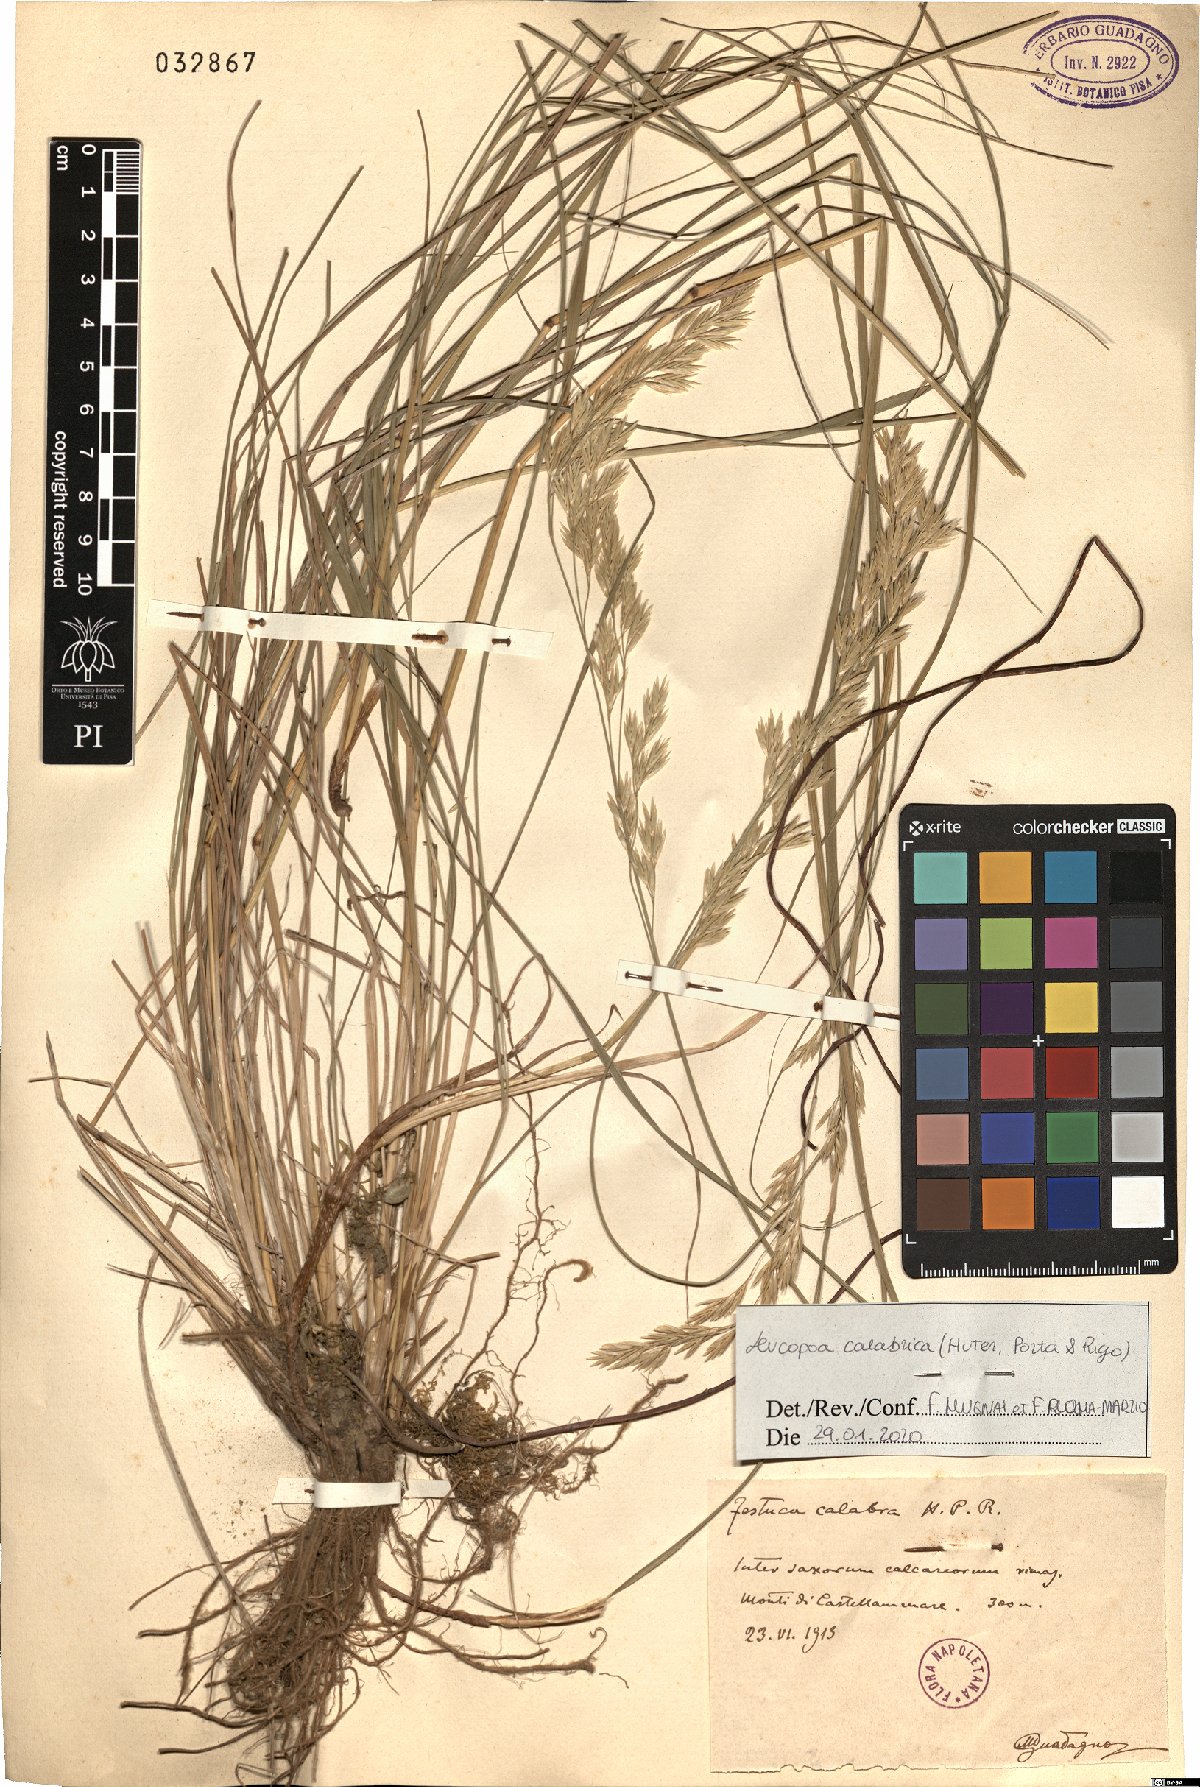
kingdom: Plantae
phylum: Tracheophyta
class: Liliopsida
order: Poales
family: Poaceae
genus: Festuca
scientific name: Festuca calabrica
